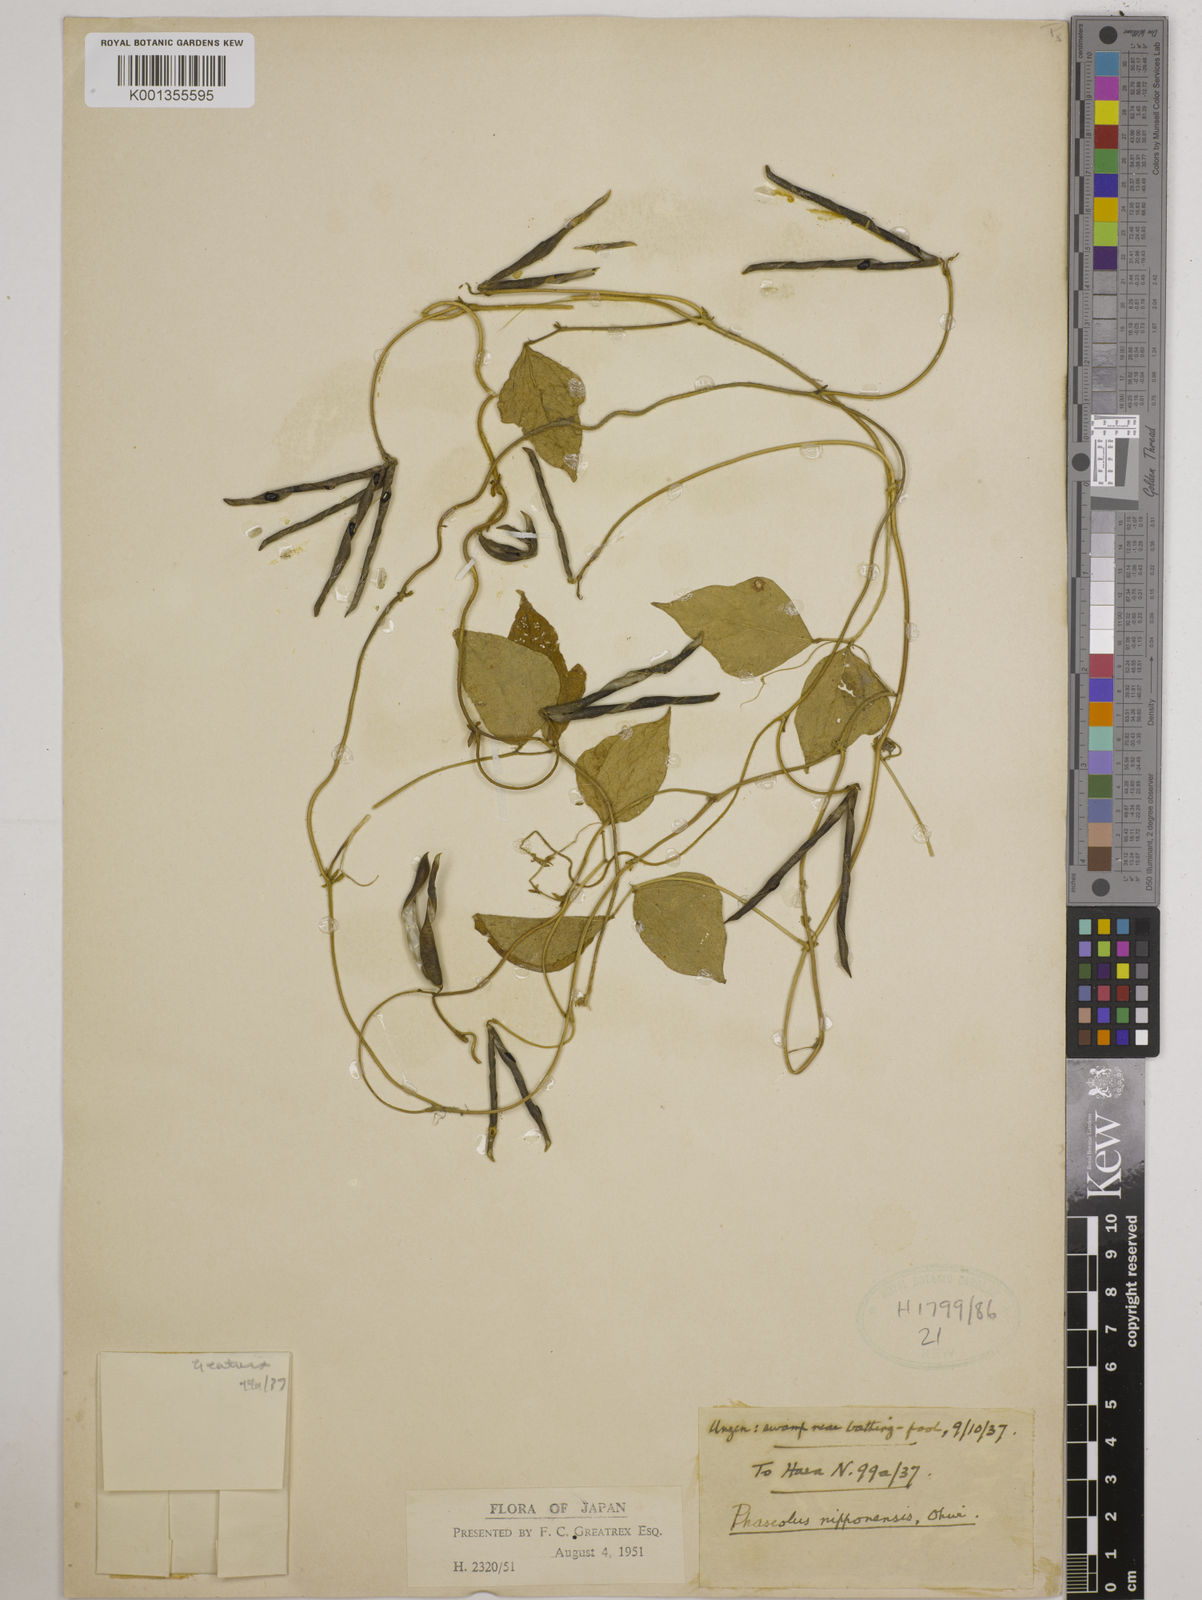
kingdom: Plantae
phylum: Tracheophyta
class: Magnoliopsida
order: Fabales
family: Fabaceae
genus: Vigna
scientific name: Vigna
